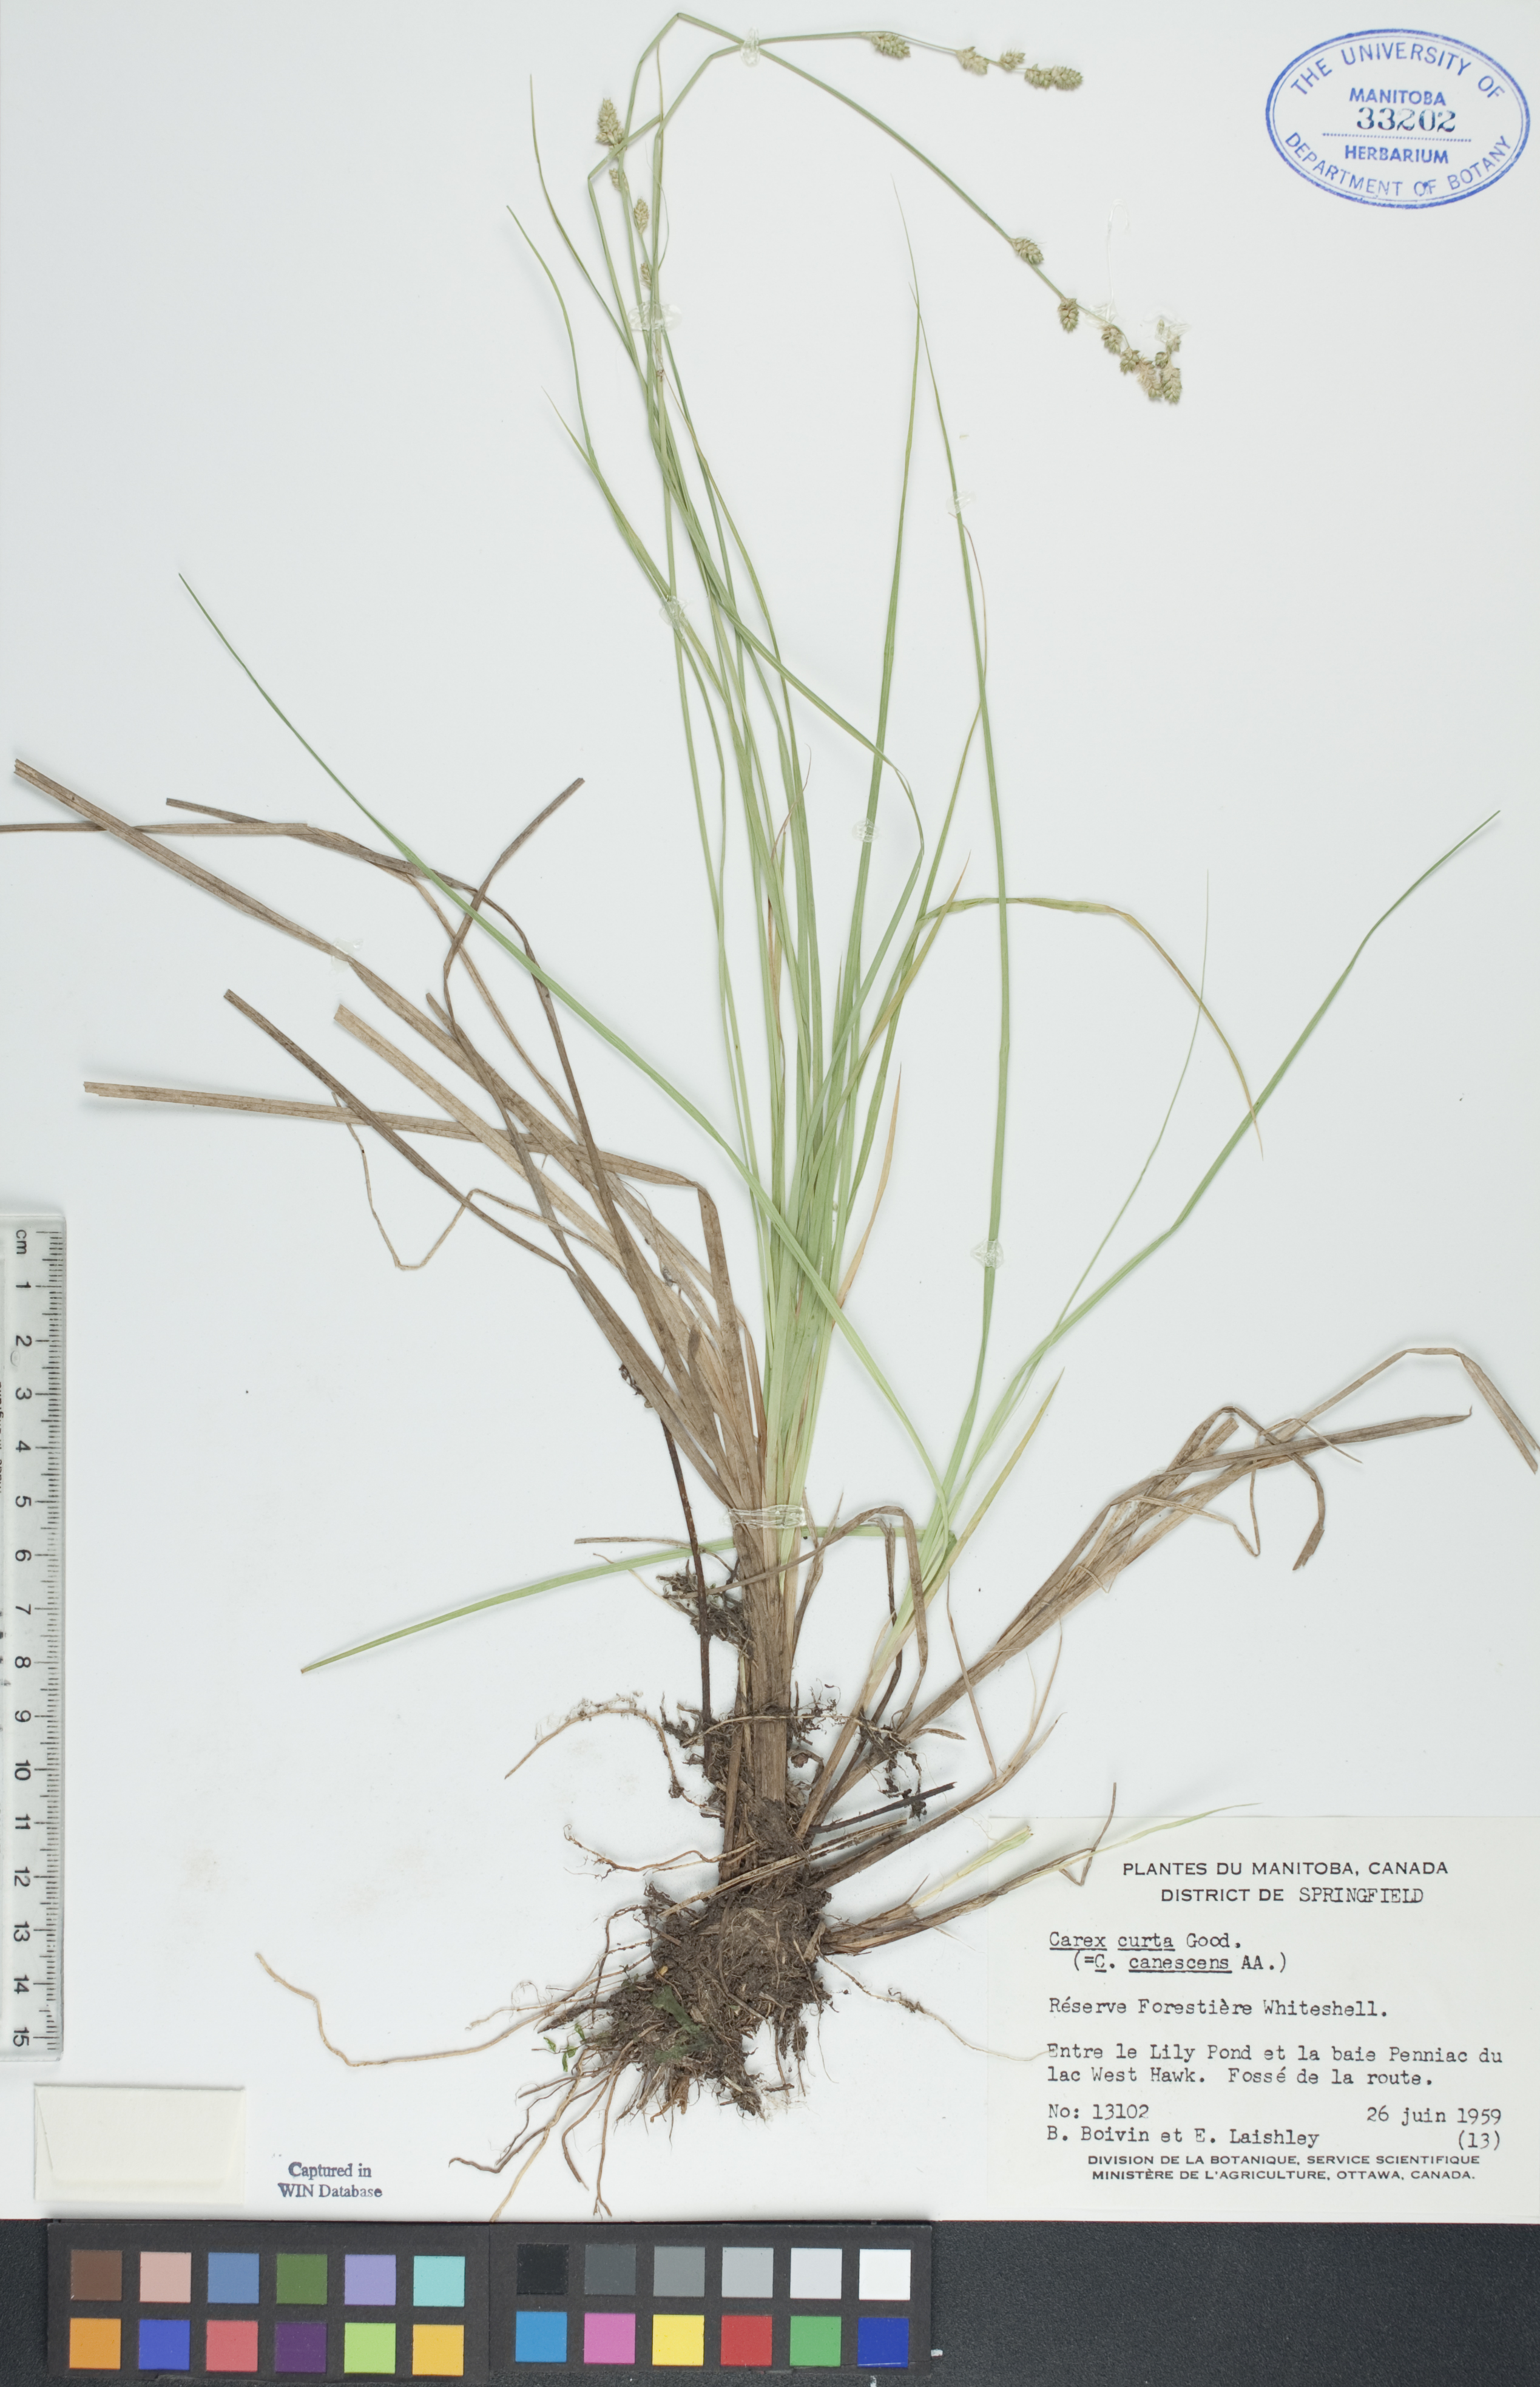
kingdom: Plantae
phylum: Tracheophyta
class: Liliopsida
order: Poales
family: Cyperaceae
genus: Carex
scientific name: Carex canescens
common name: White sedge
